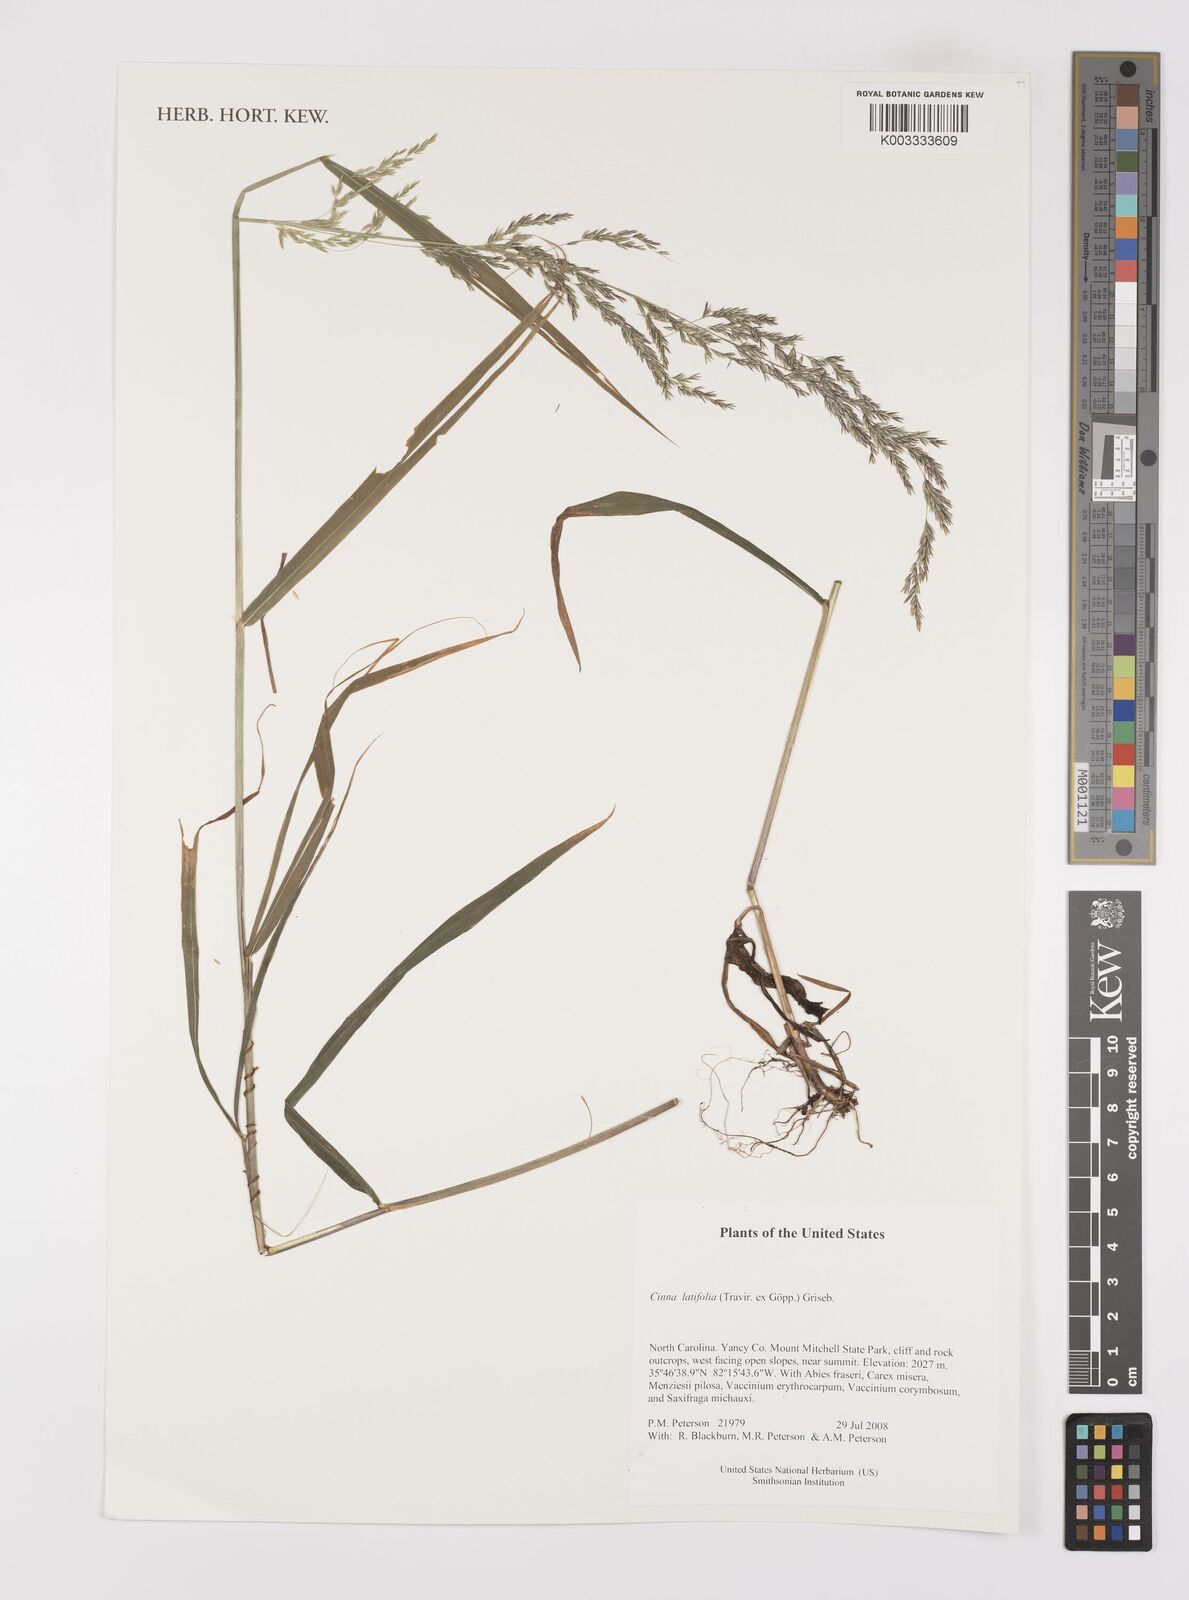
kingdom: Plantae
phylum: Tracheophyta
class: Liliopsida
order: Poales
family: Poaceae
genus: Cinna
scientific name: Cinna latifolia
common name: Drooping woodreed
